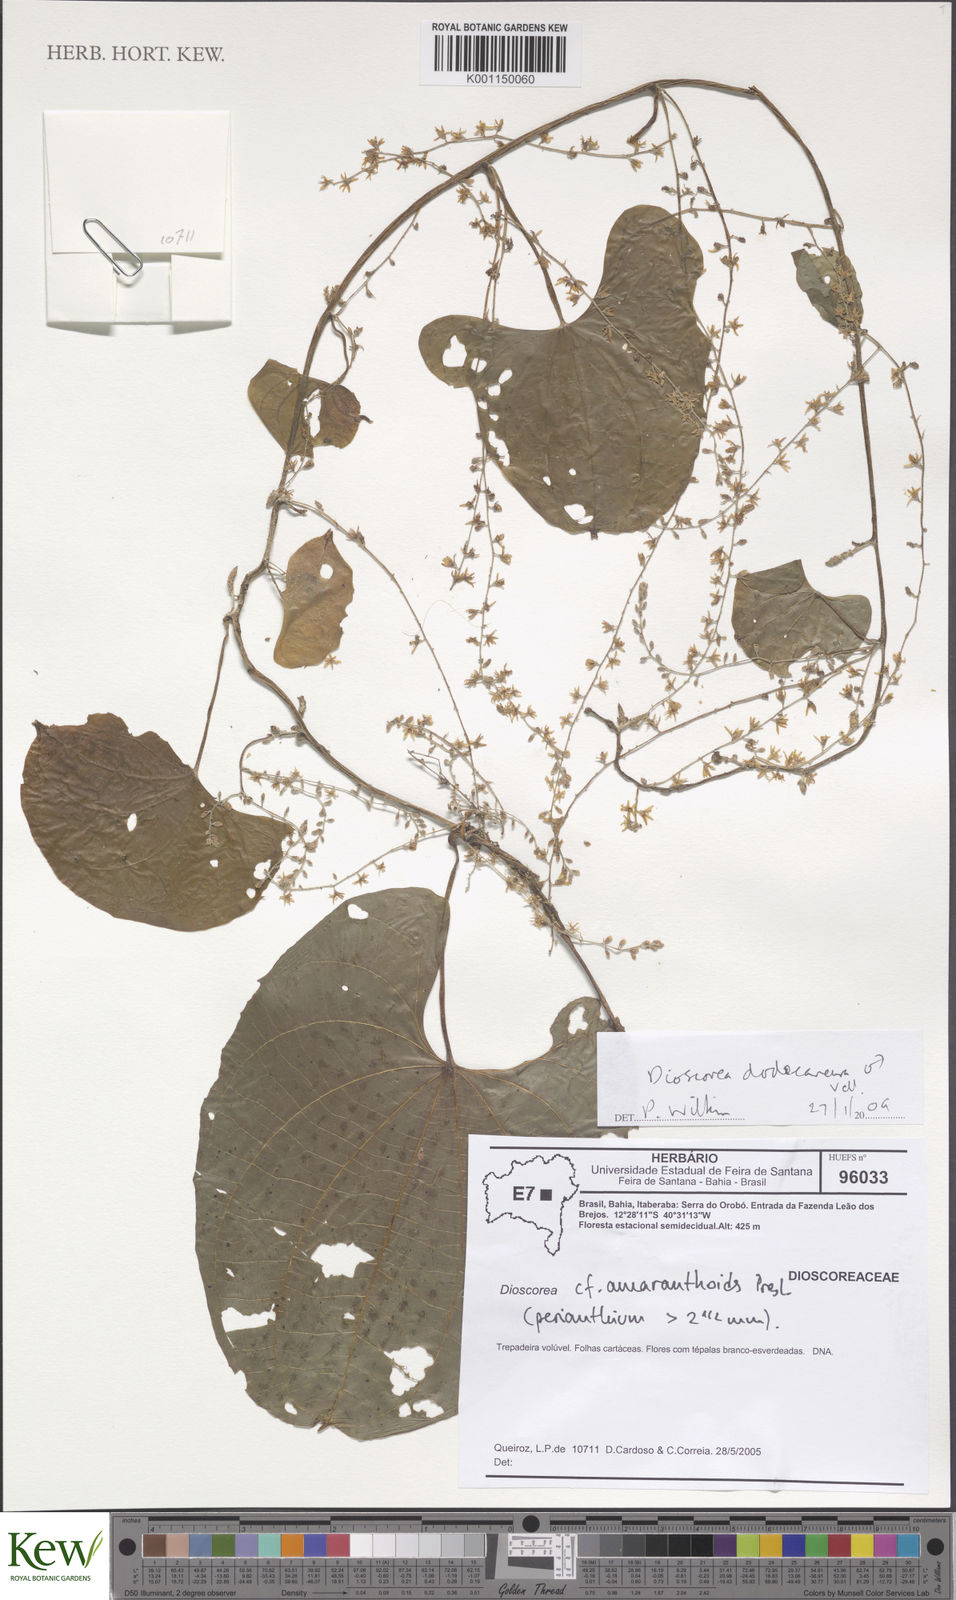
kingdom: Plantae
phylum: Tracheophyta
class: Liliopsida
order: Dioscoreales
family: Dioscoreaceae
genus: Dioscorea
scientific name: Dioscorea dodecaneura
